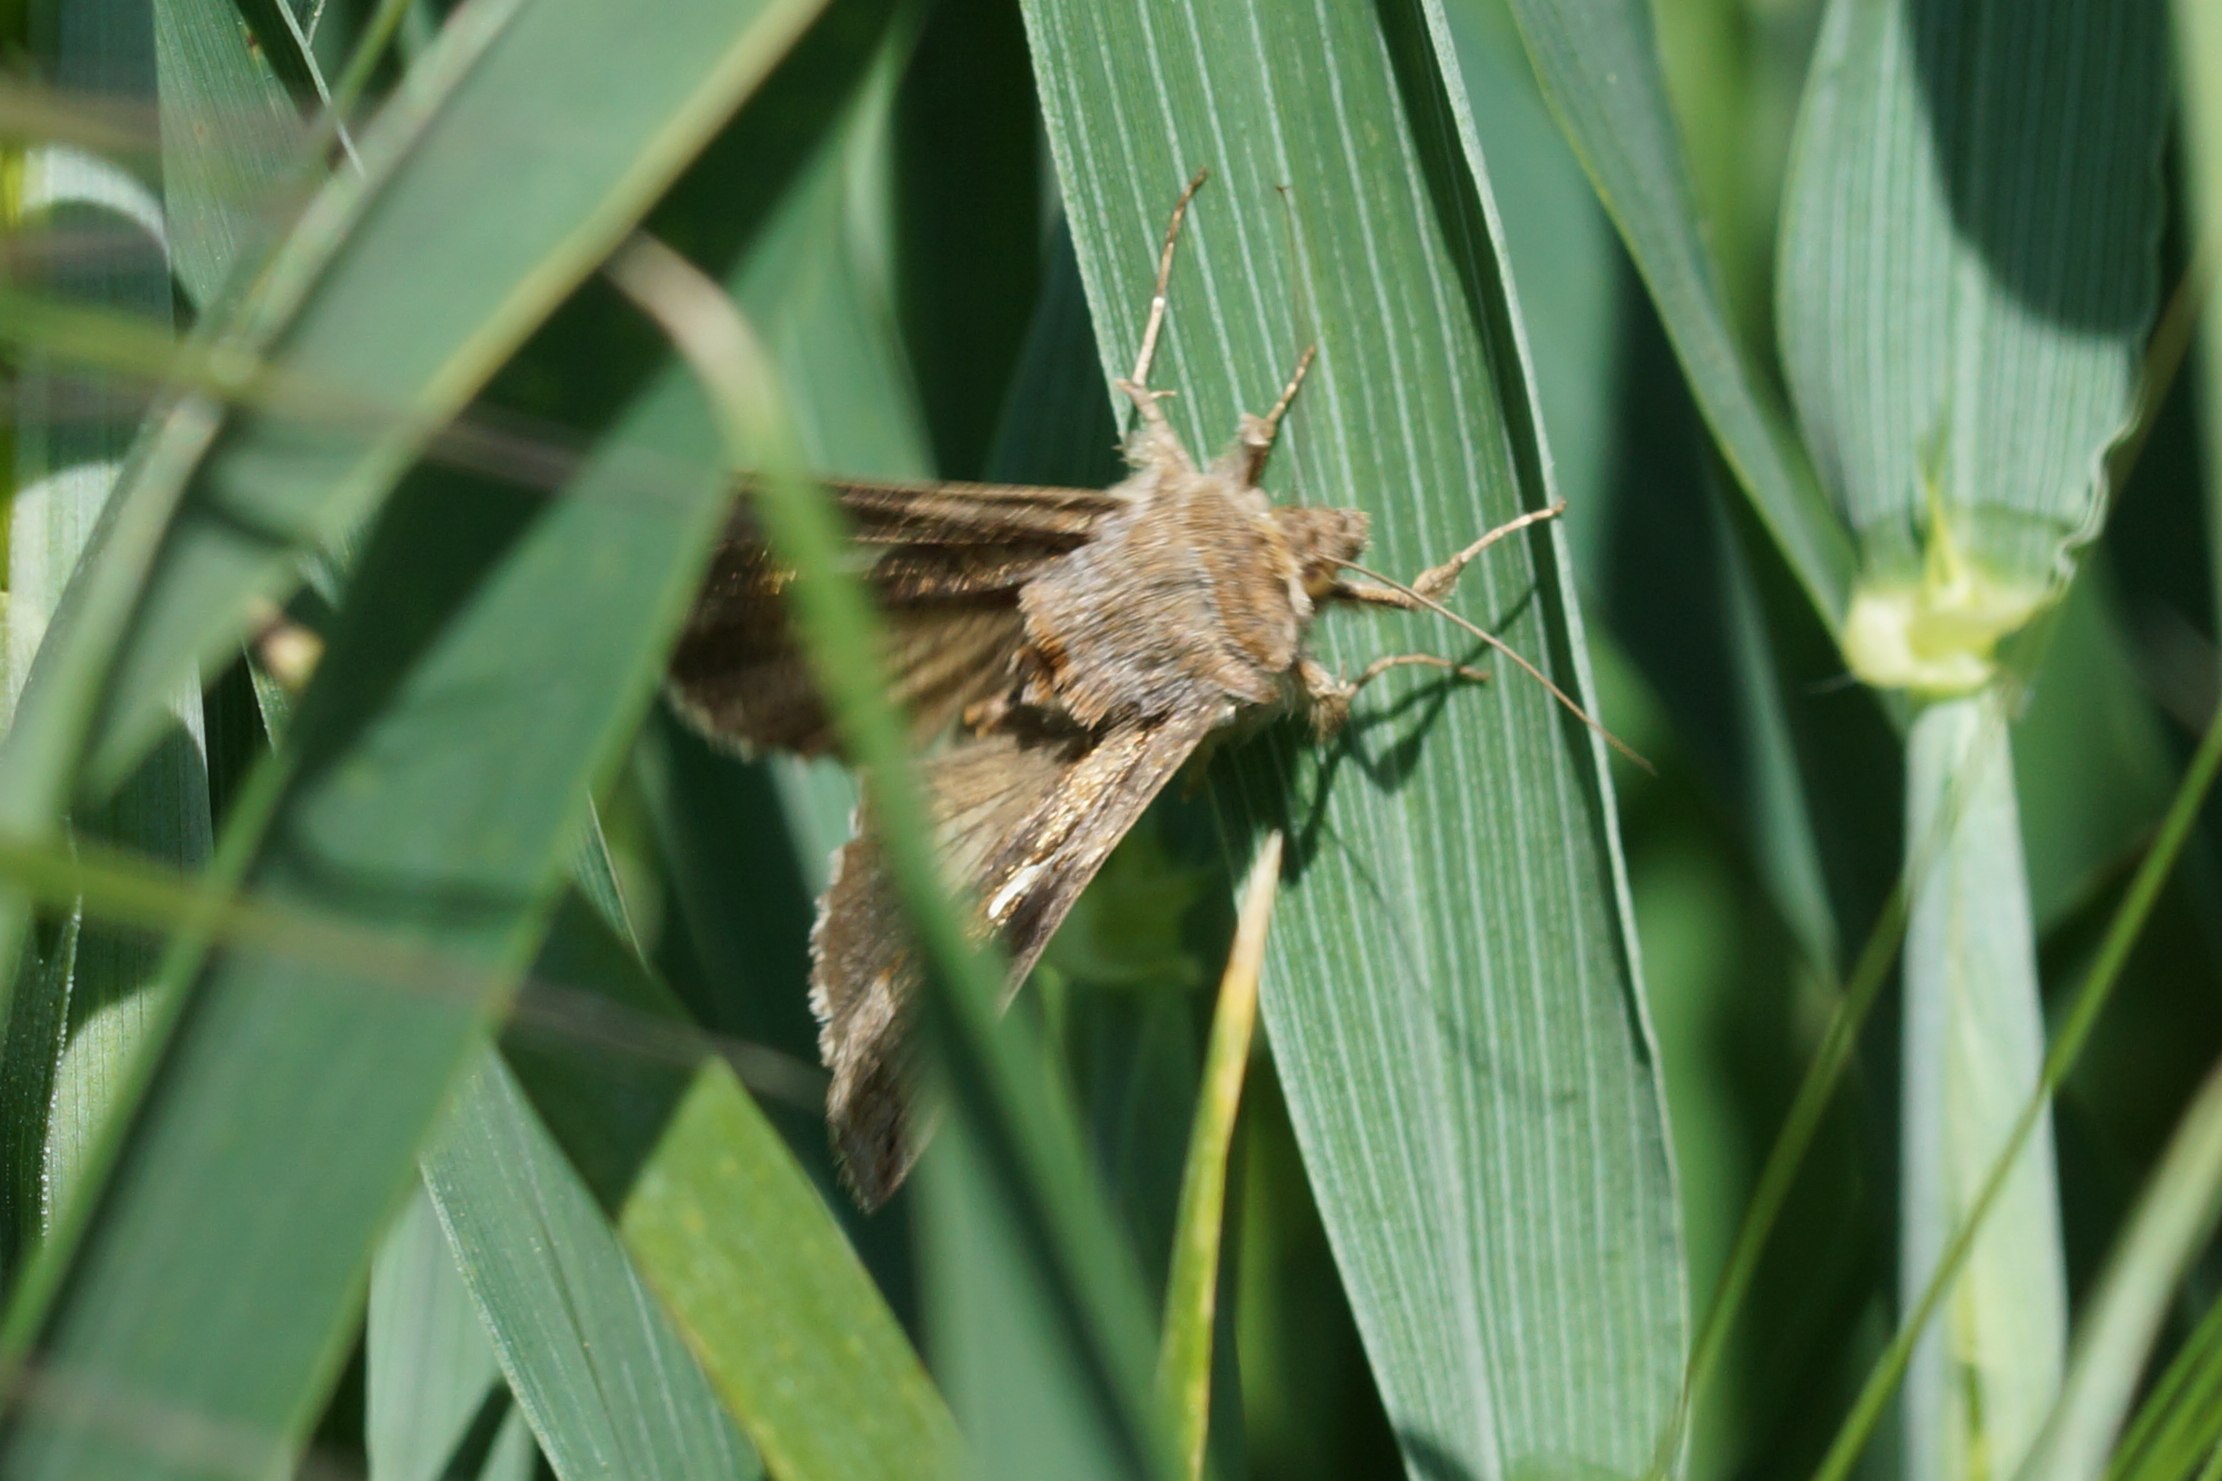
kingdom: Animalia
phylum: Arthropoda
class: Insecta
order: Lepidoptera
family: Noctuidae
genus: Autographa
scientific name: Autographa gamma
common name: Gammaugle
